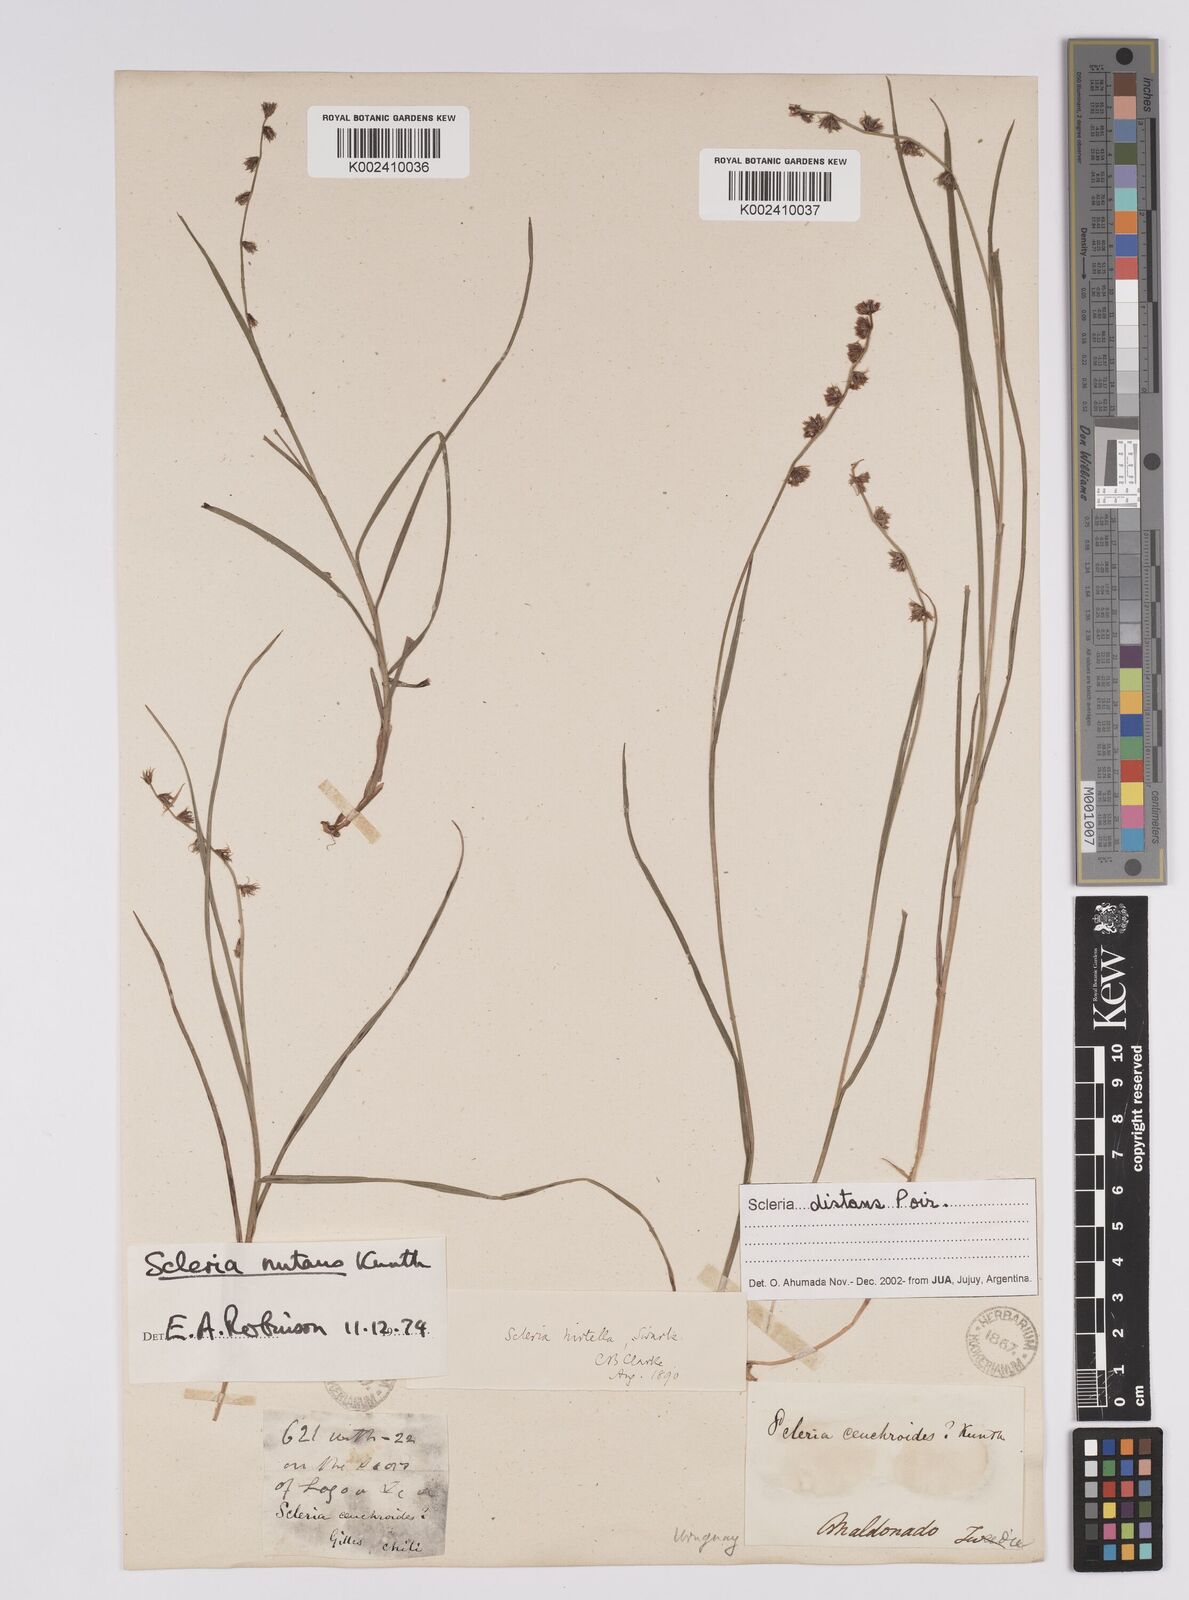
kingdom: Plantae
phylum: Tracheophyta
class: Liliopsida
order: Poales
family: Cyperaceae
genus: Scleria
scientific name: Scleria distans
